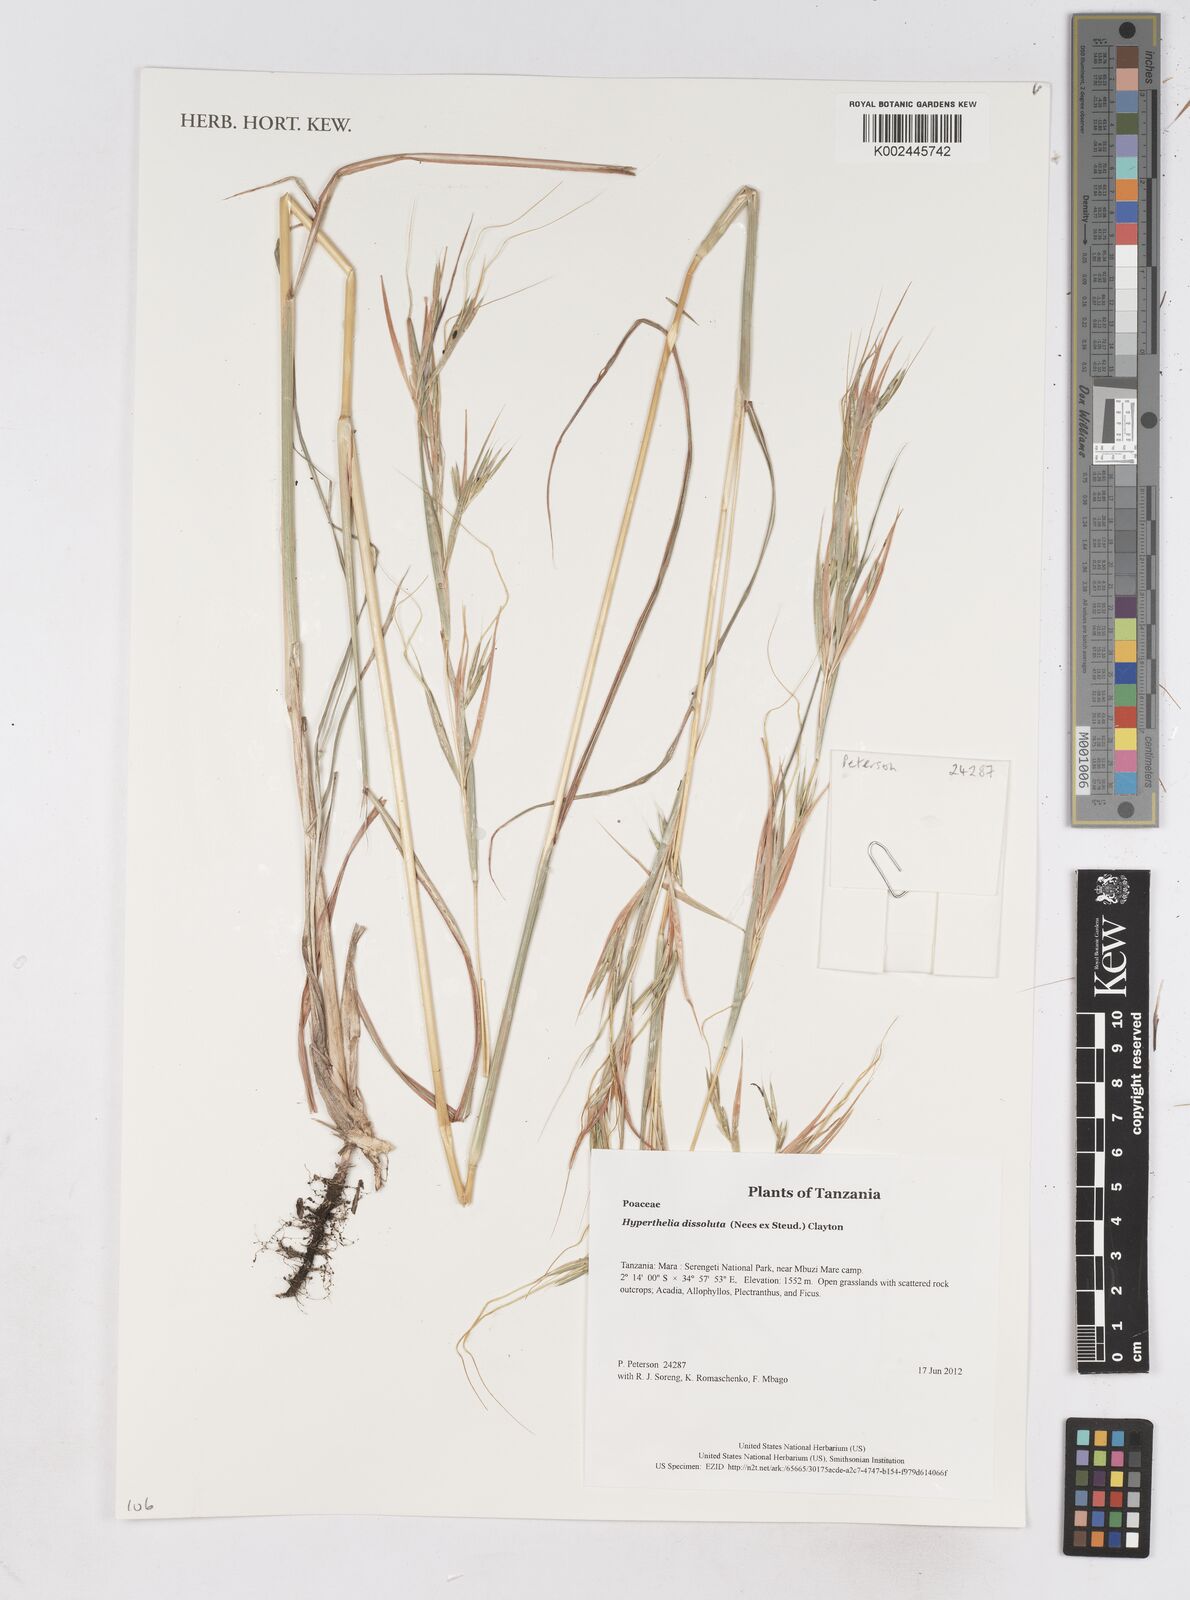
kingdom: Plantae
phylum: Tracheophyta
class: Liliopsida
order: Poales
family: Poaceae
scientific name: Poaceae
